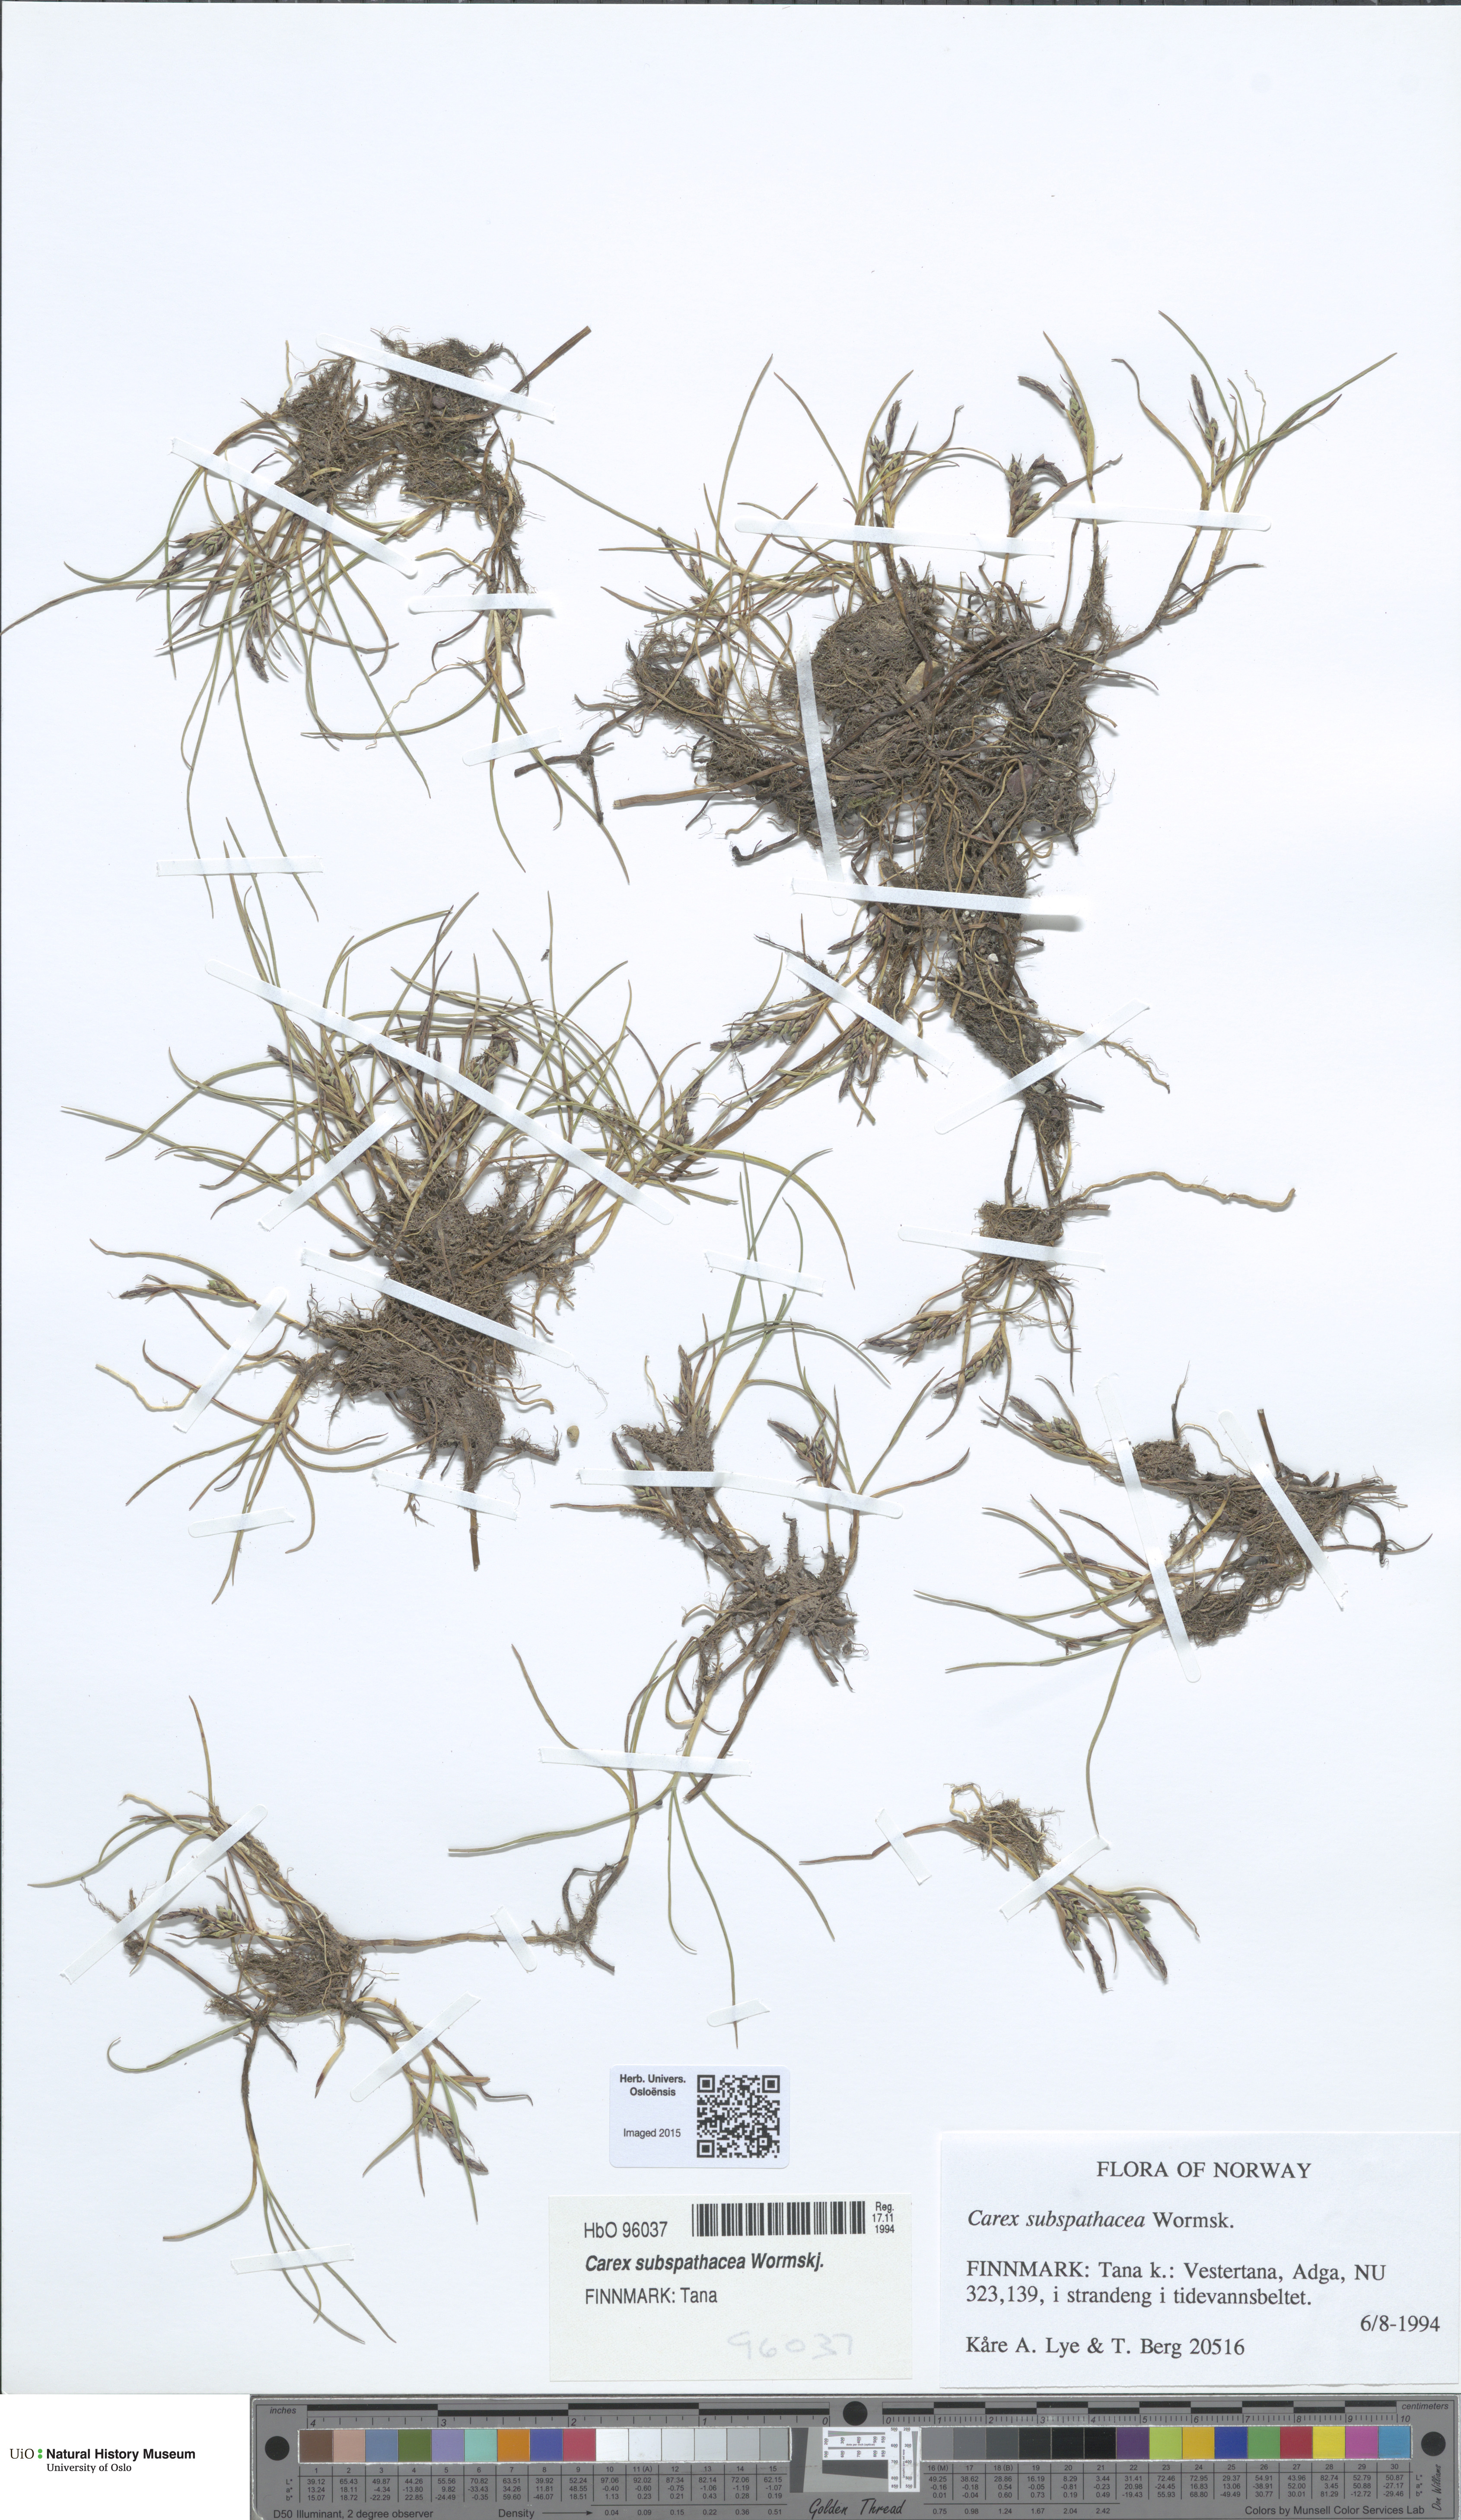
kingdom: Plantae
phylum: Tracheophyta
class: Liliopsida
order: Poales
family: Cyperaceae
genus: Carex
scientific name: Carex subspathacea
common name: Hoppner's sedge
